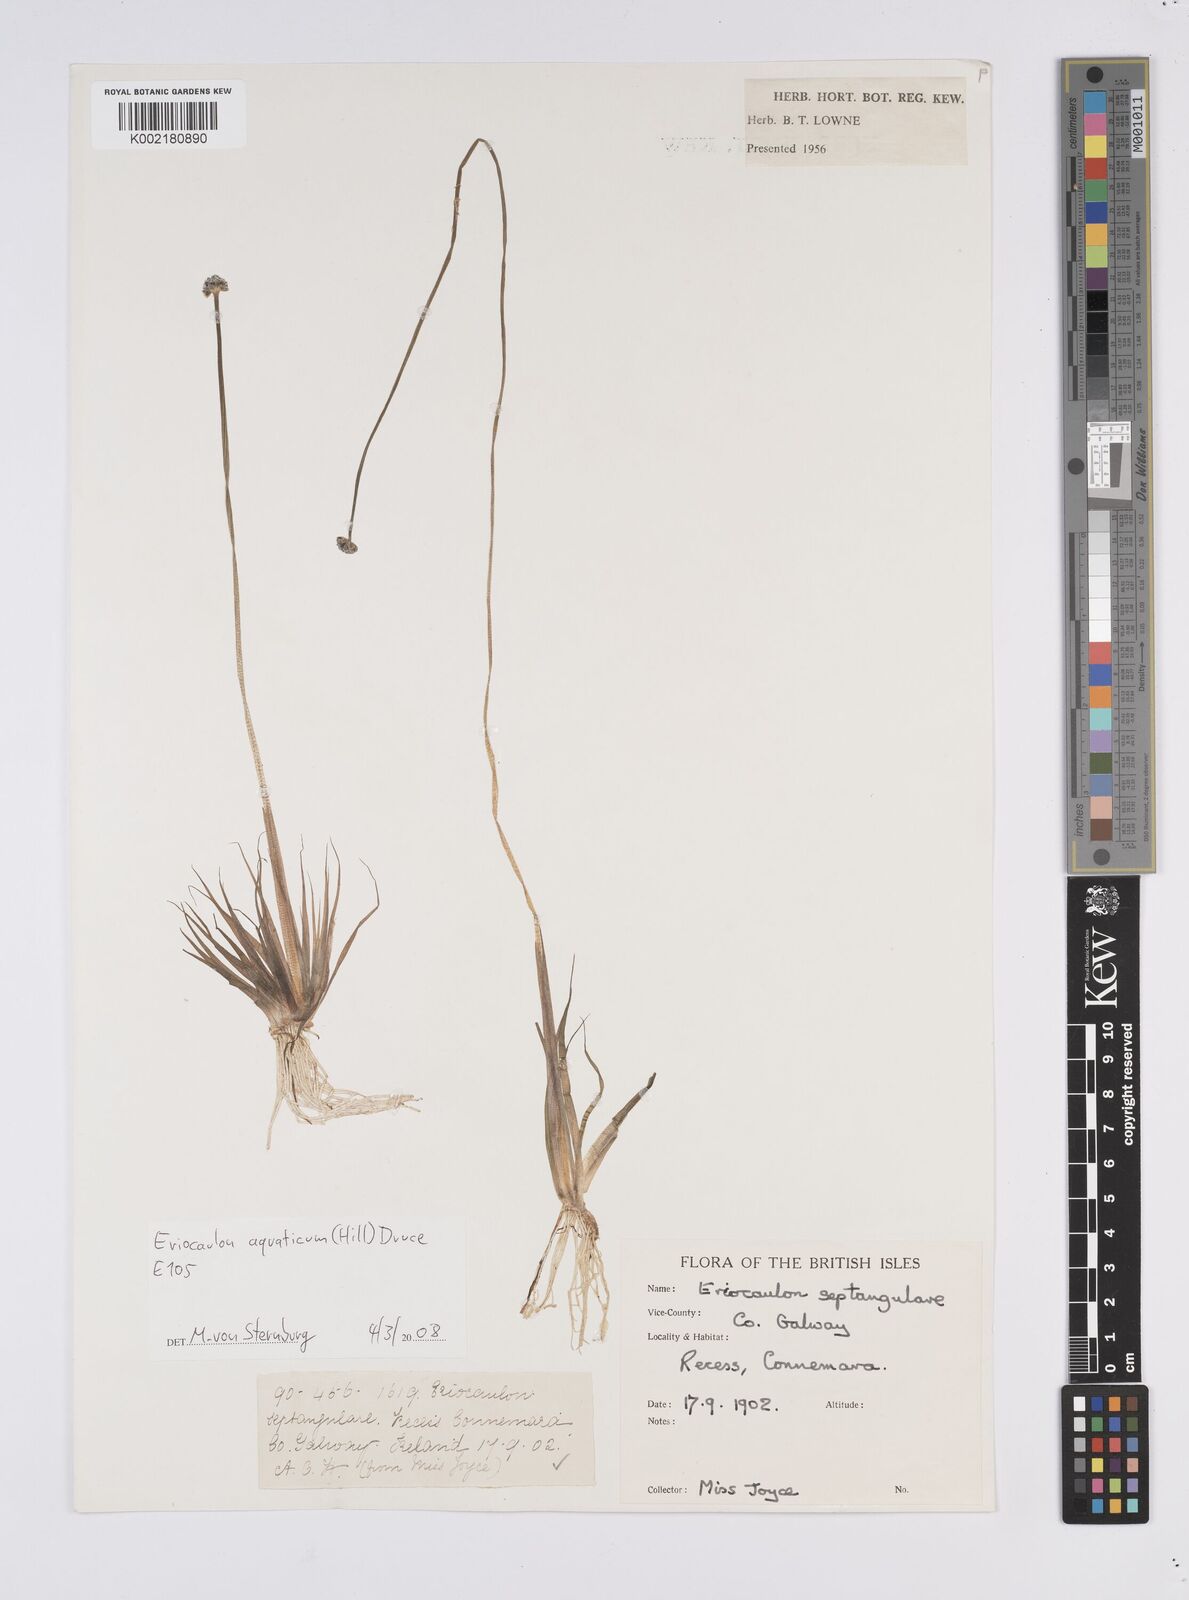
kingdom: Plantae
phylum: Tracheophyta
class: Liliopsida
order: Poales
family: Eriocaulaceae
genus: Eriocaulon
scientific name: Eriocaulon aquaticum
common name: Pipewort
